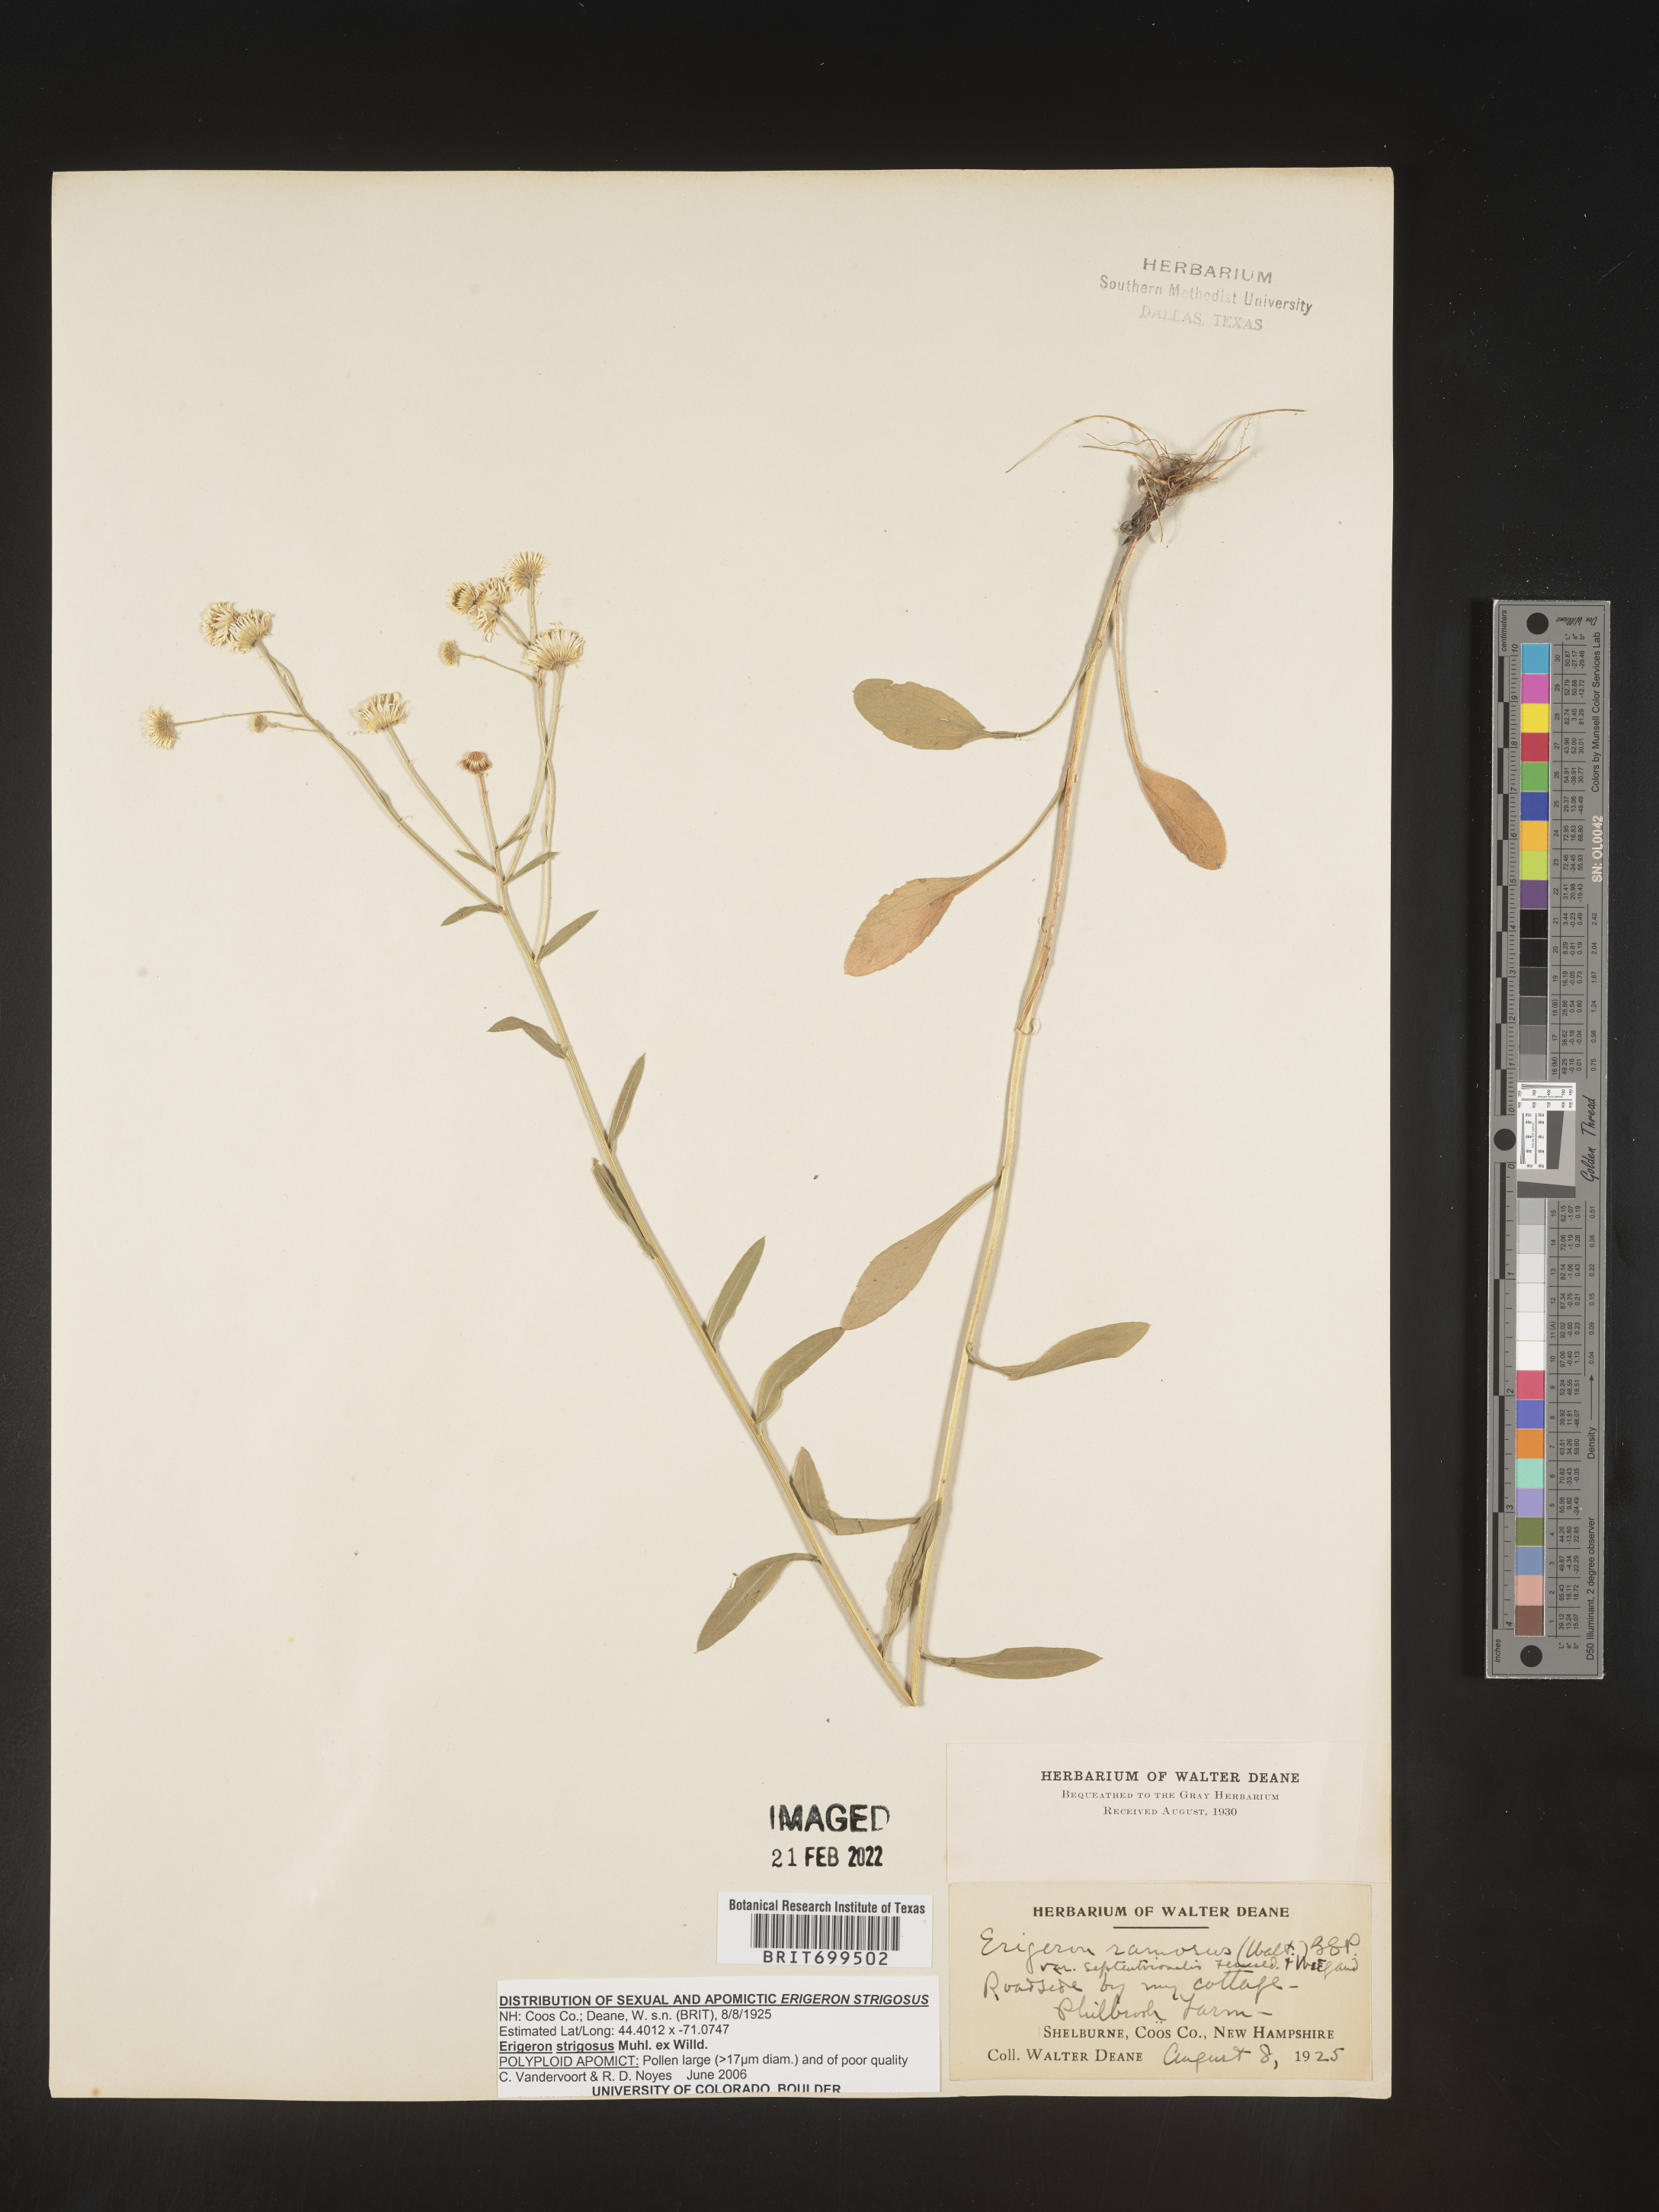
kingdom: Plantae
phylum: Tracheophyta
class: Magnoliopsida
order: Asterales
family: Asteraceae
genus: Erigeron
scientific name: Erigeron strigosus
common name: Common eastern fleabane
